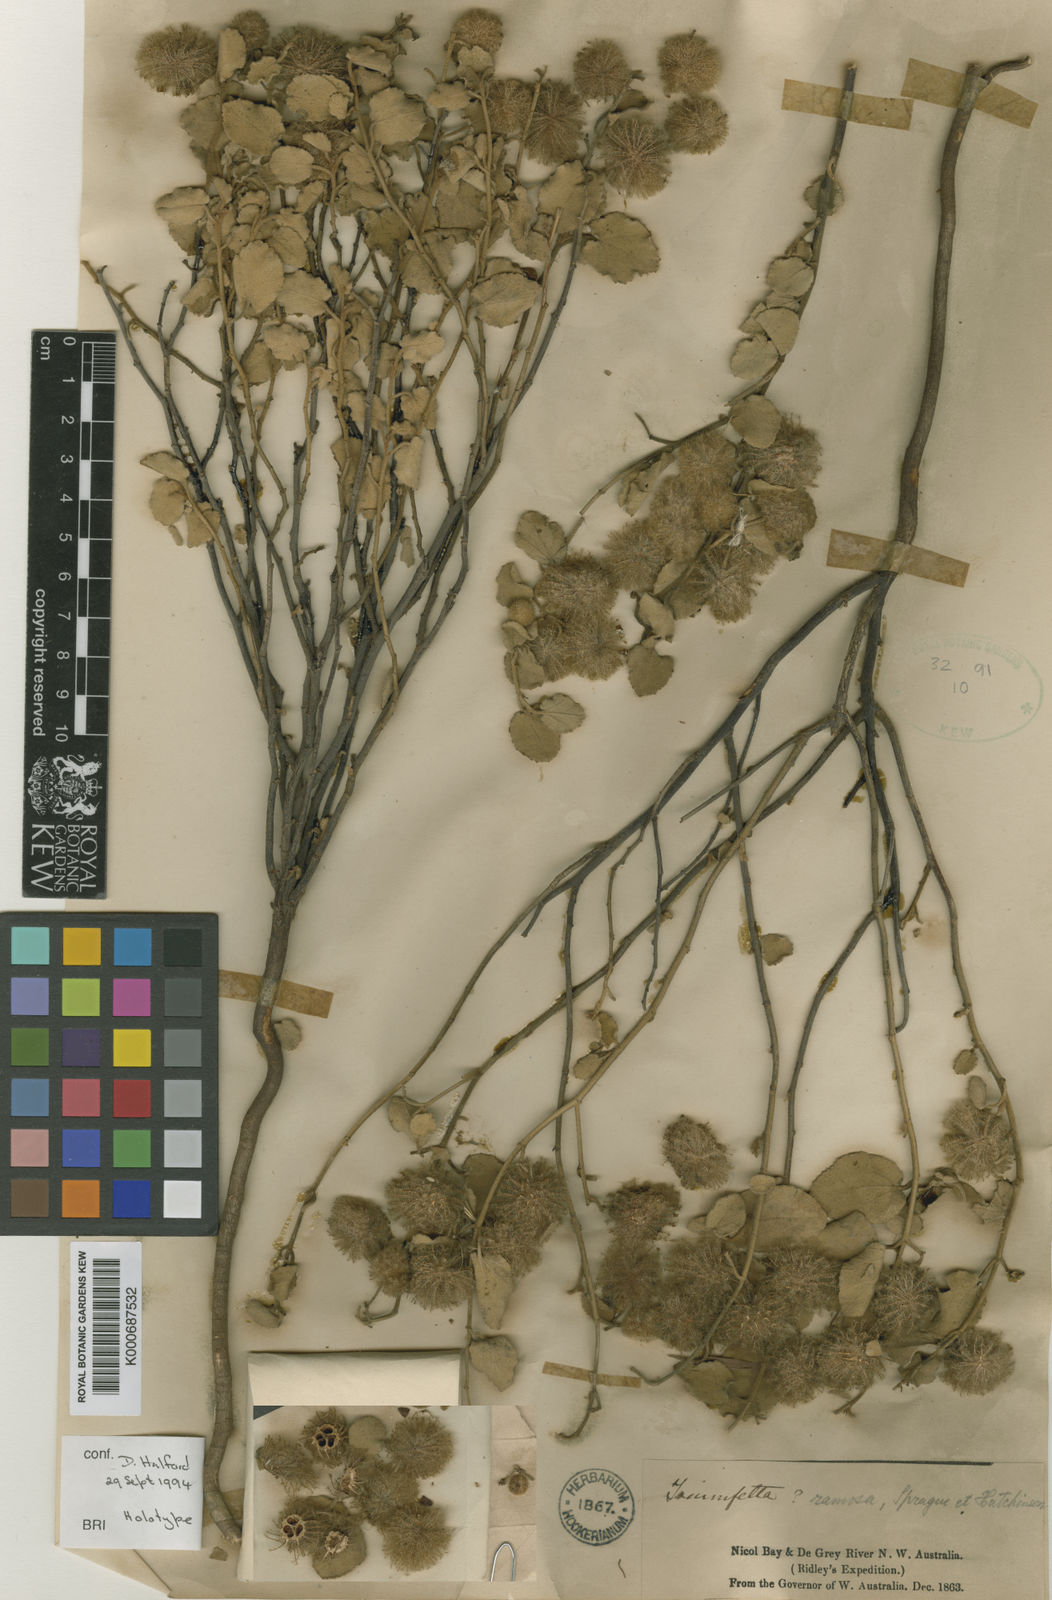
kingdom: Plantae
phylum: Tracheophyta
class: Magnoliopsida
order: Malvales
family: Malvaceae
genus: Triumfetta
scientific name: Triumfetta ramosa
